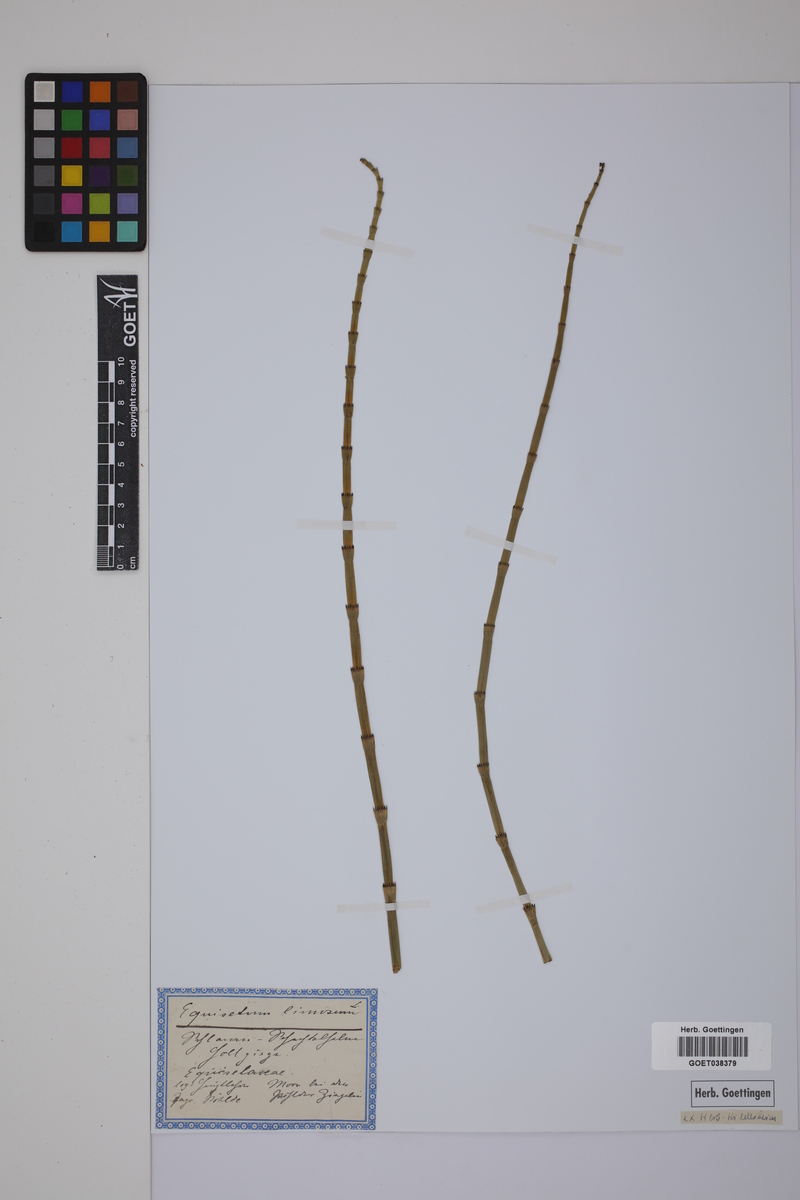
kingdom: Plantae
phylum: Tracheophyta
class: Polypodiopsida
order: Equisetales
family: Equisetaceae
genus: Equisetum
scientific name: Equisetum fluviatile
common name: Water horsetail
